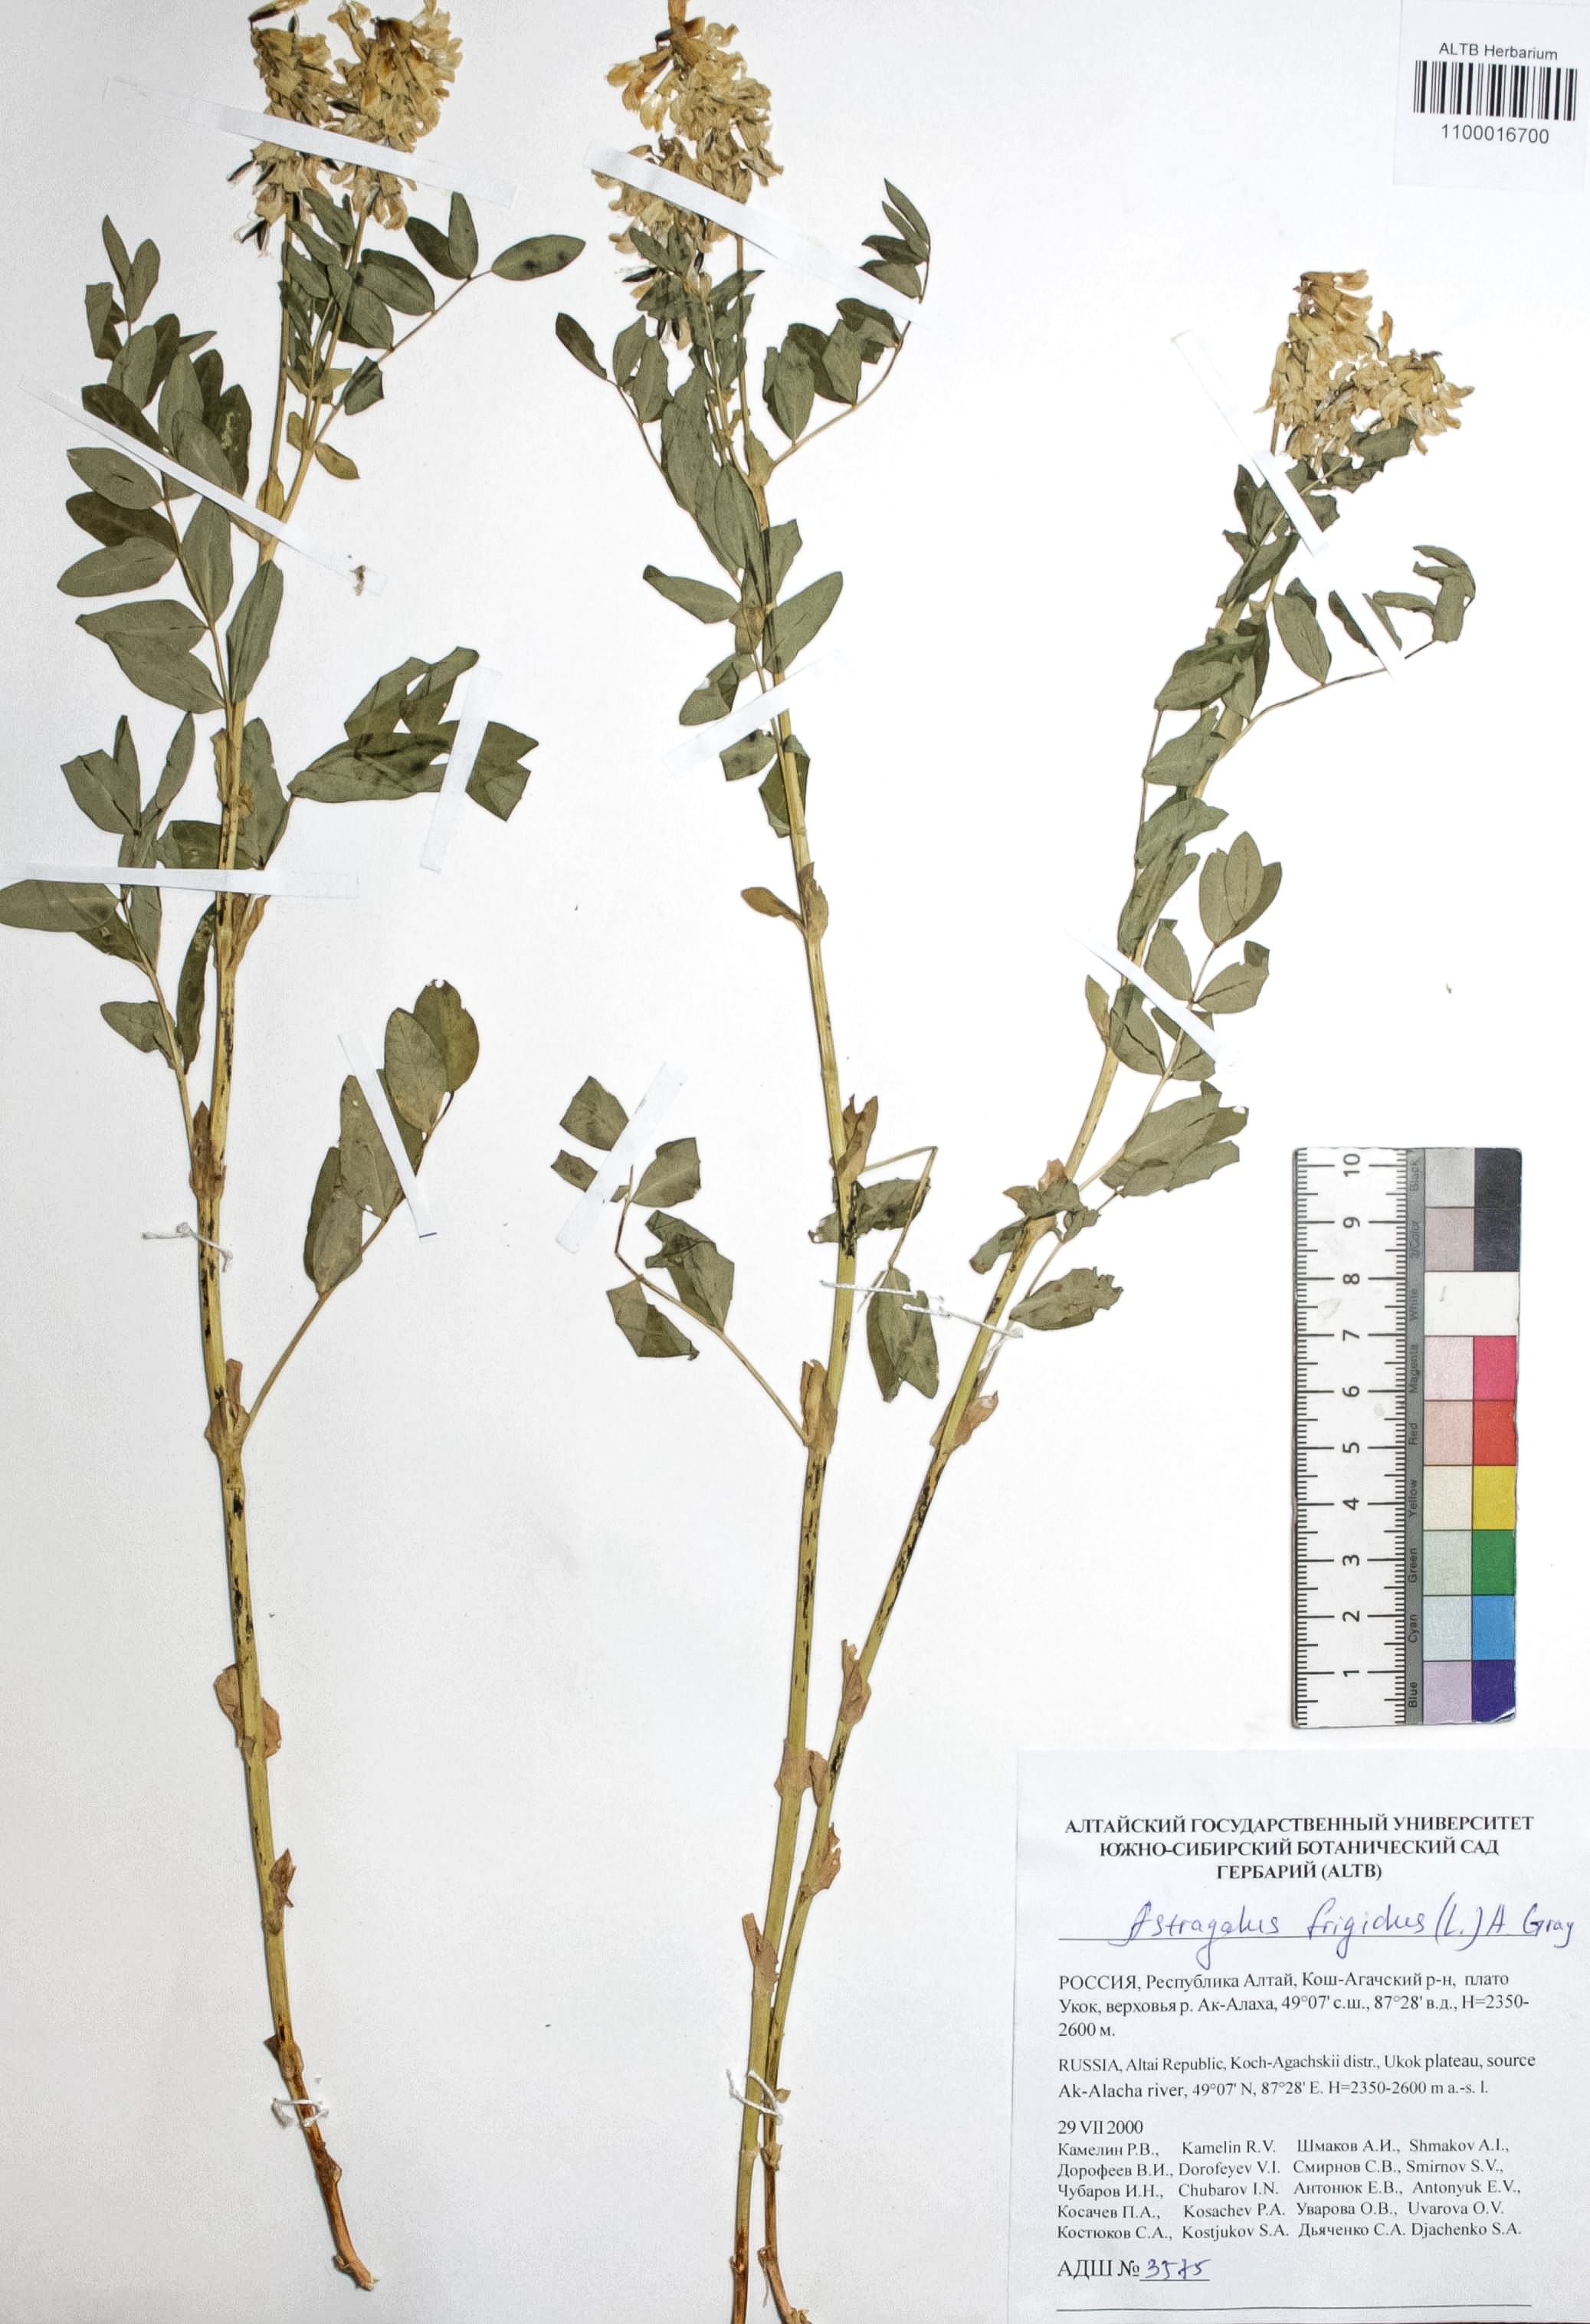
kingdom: Plantae
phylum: Tracheophyta
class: Magnoliopsida
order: Fabales
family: Fabaceae
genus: Astragalus
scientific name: Astragalus frigidus
